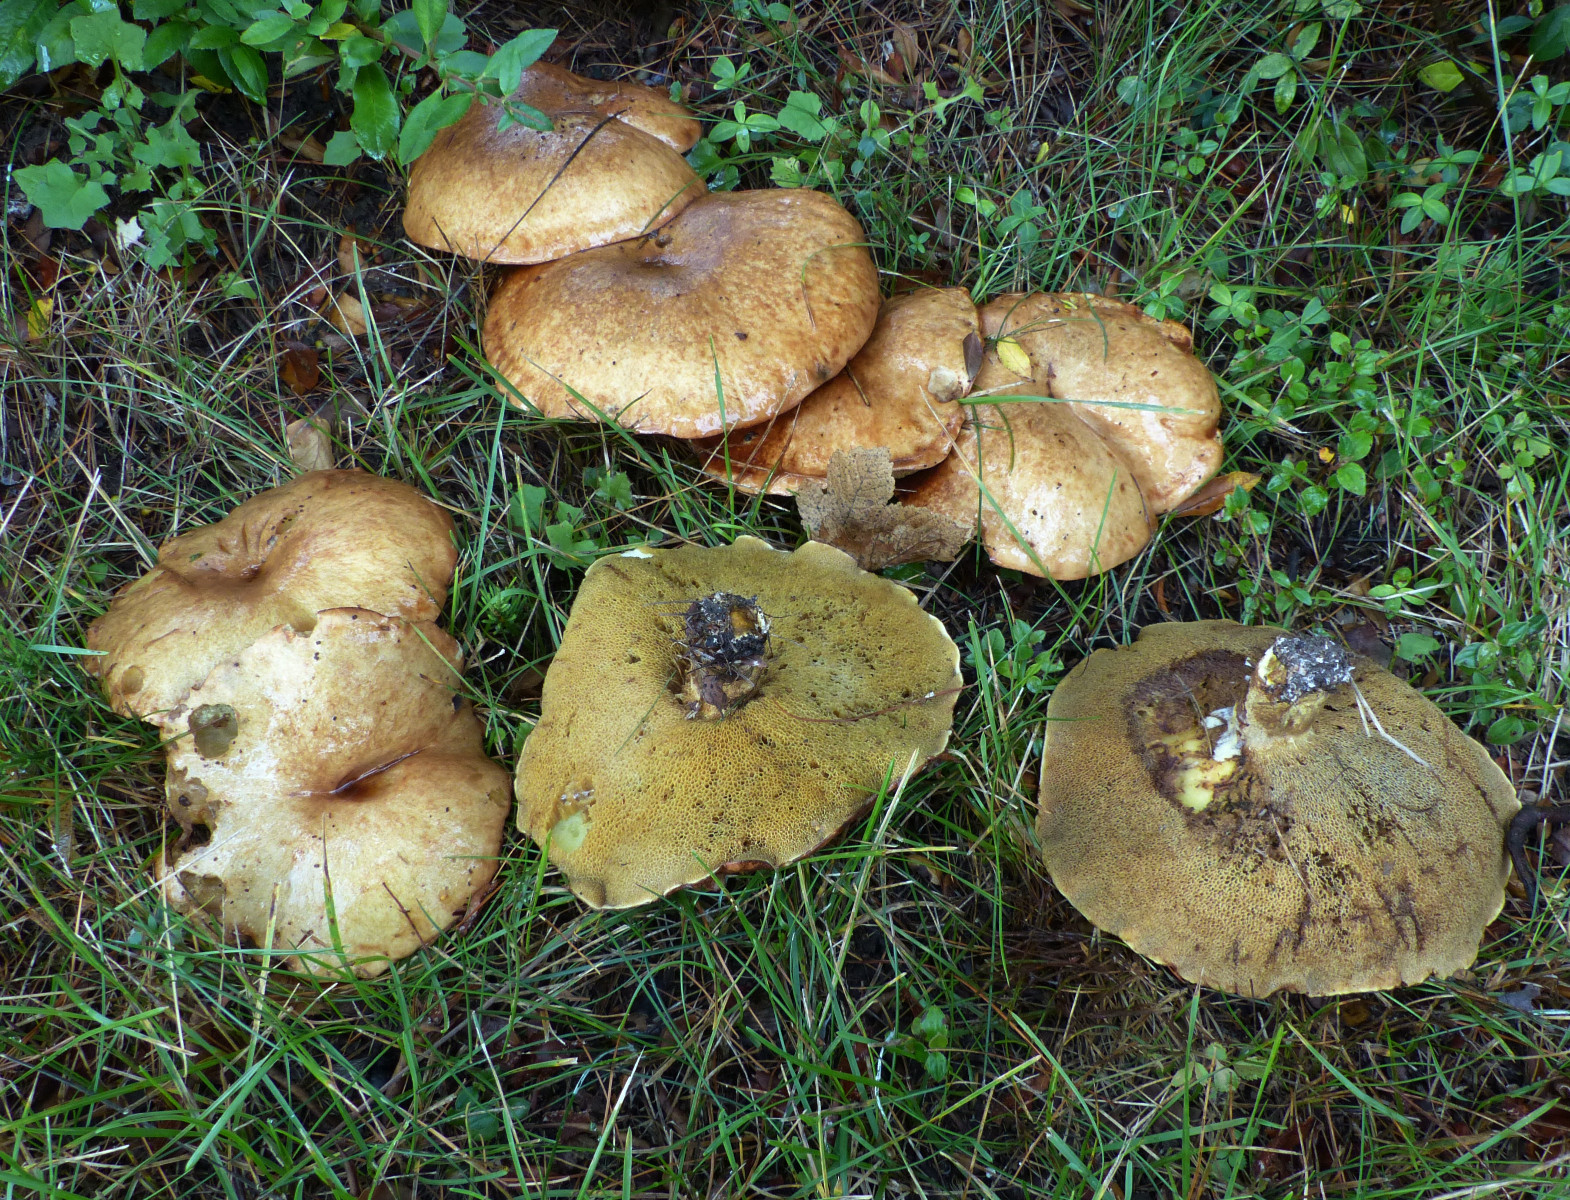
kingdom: Fungi
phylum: Basidiomycota
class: Agaricomycetes
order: Boletales
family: Suillaceae
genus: Suillus
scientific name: Suillus
